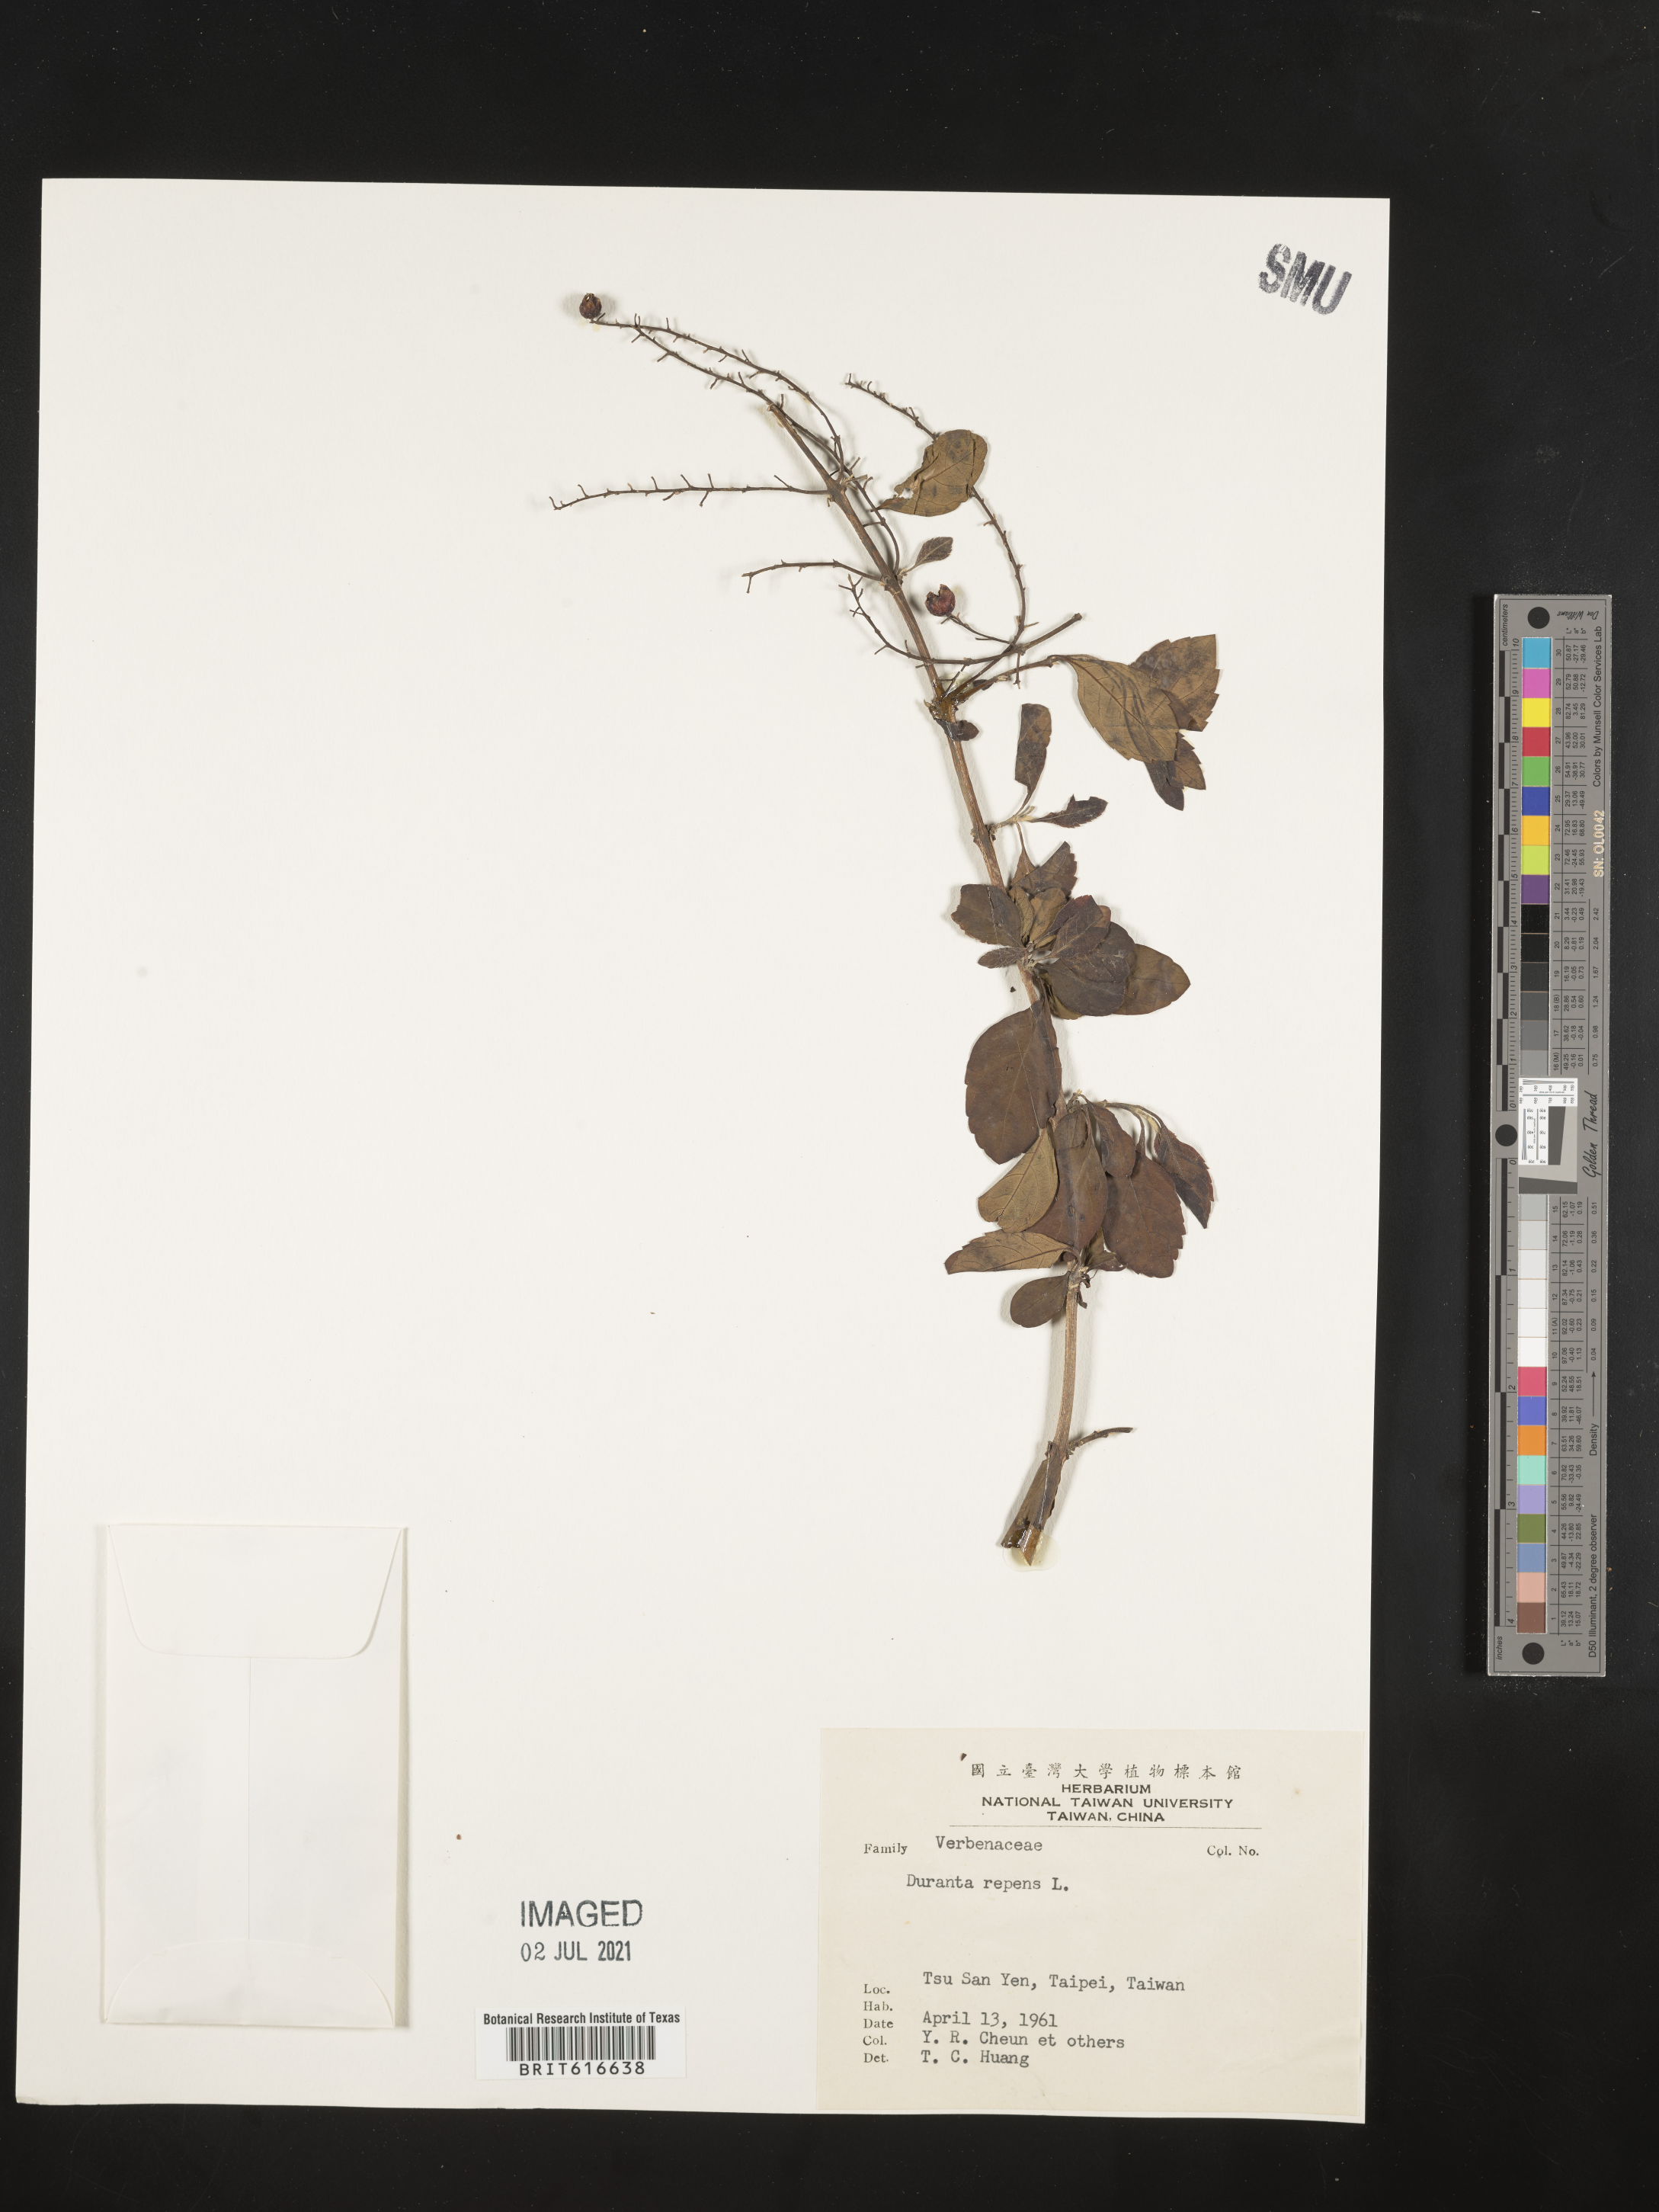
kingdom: Plantae
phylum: Tracheophyta
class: Magnoliopsida
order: Lamiales
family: Verbenaceae
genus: Duranta
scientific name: Duranta erecta
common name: Golden dewdrops
